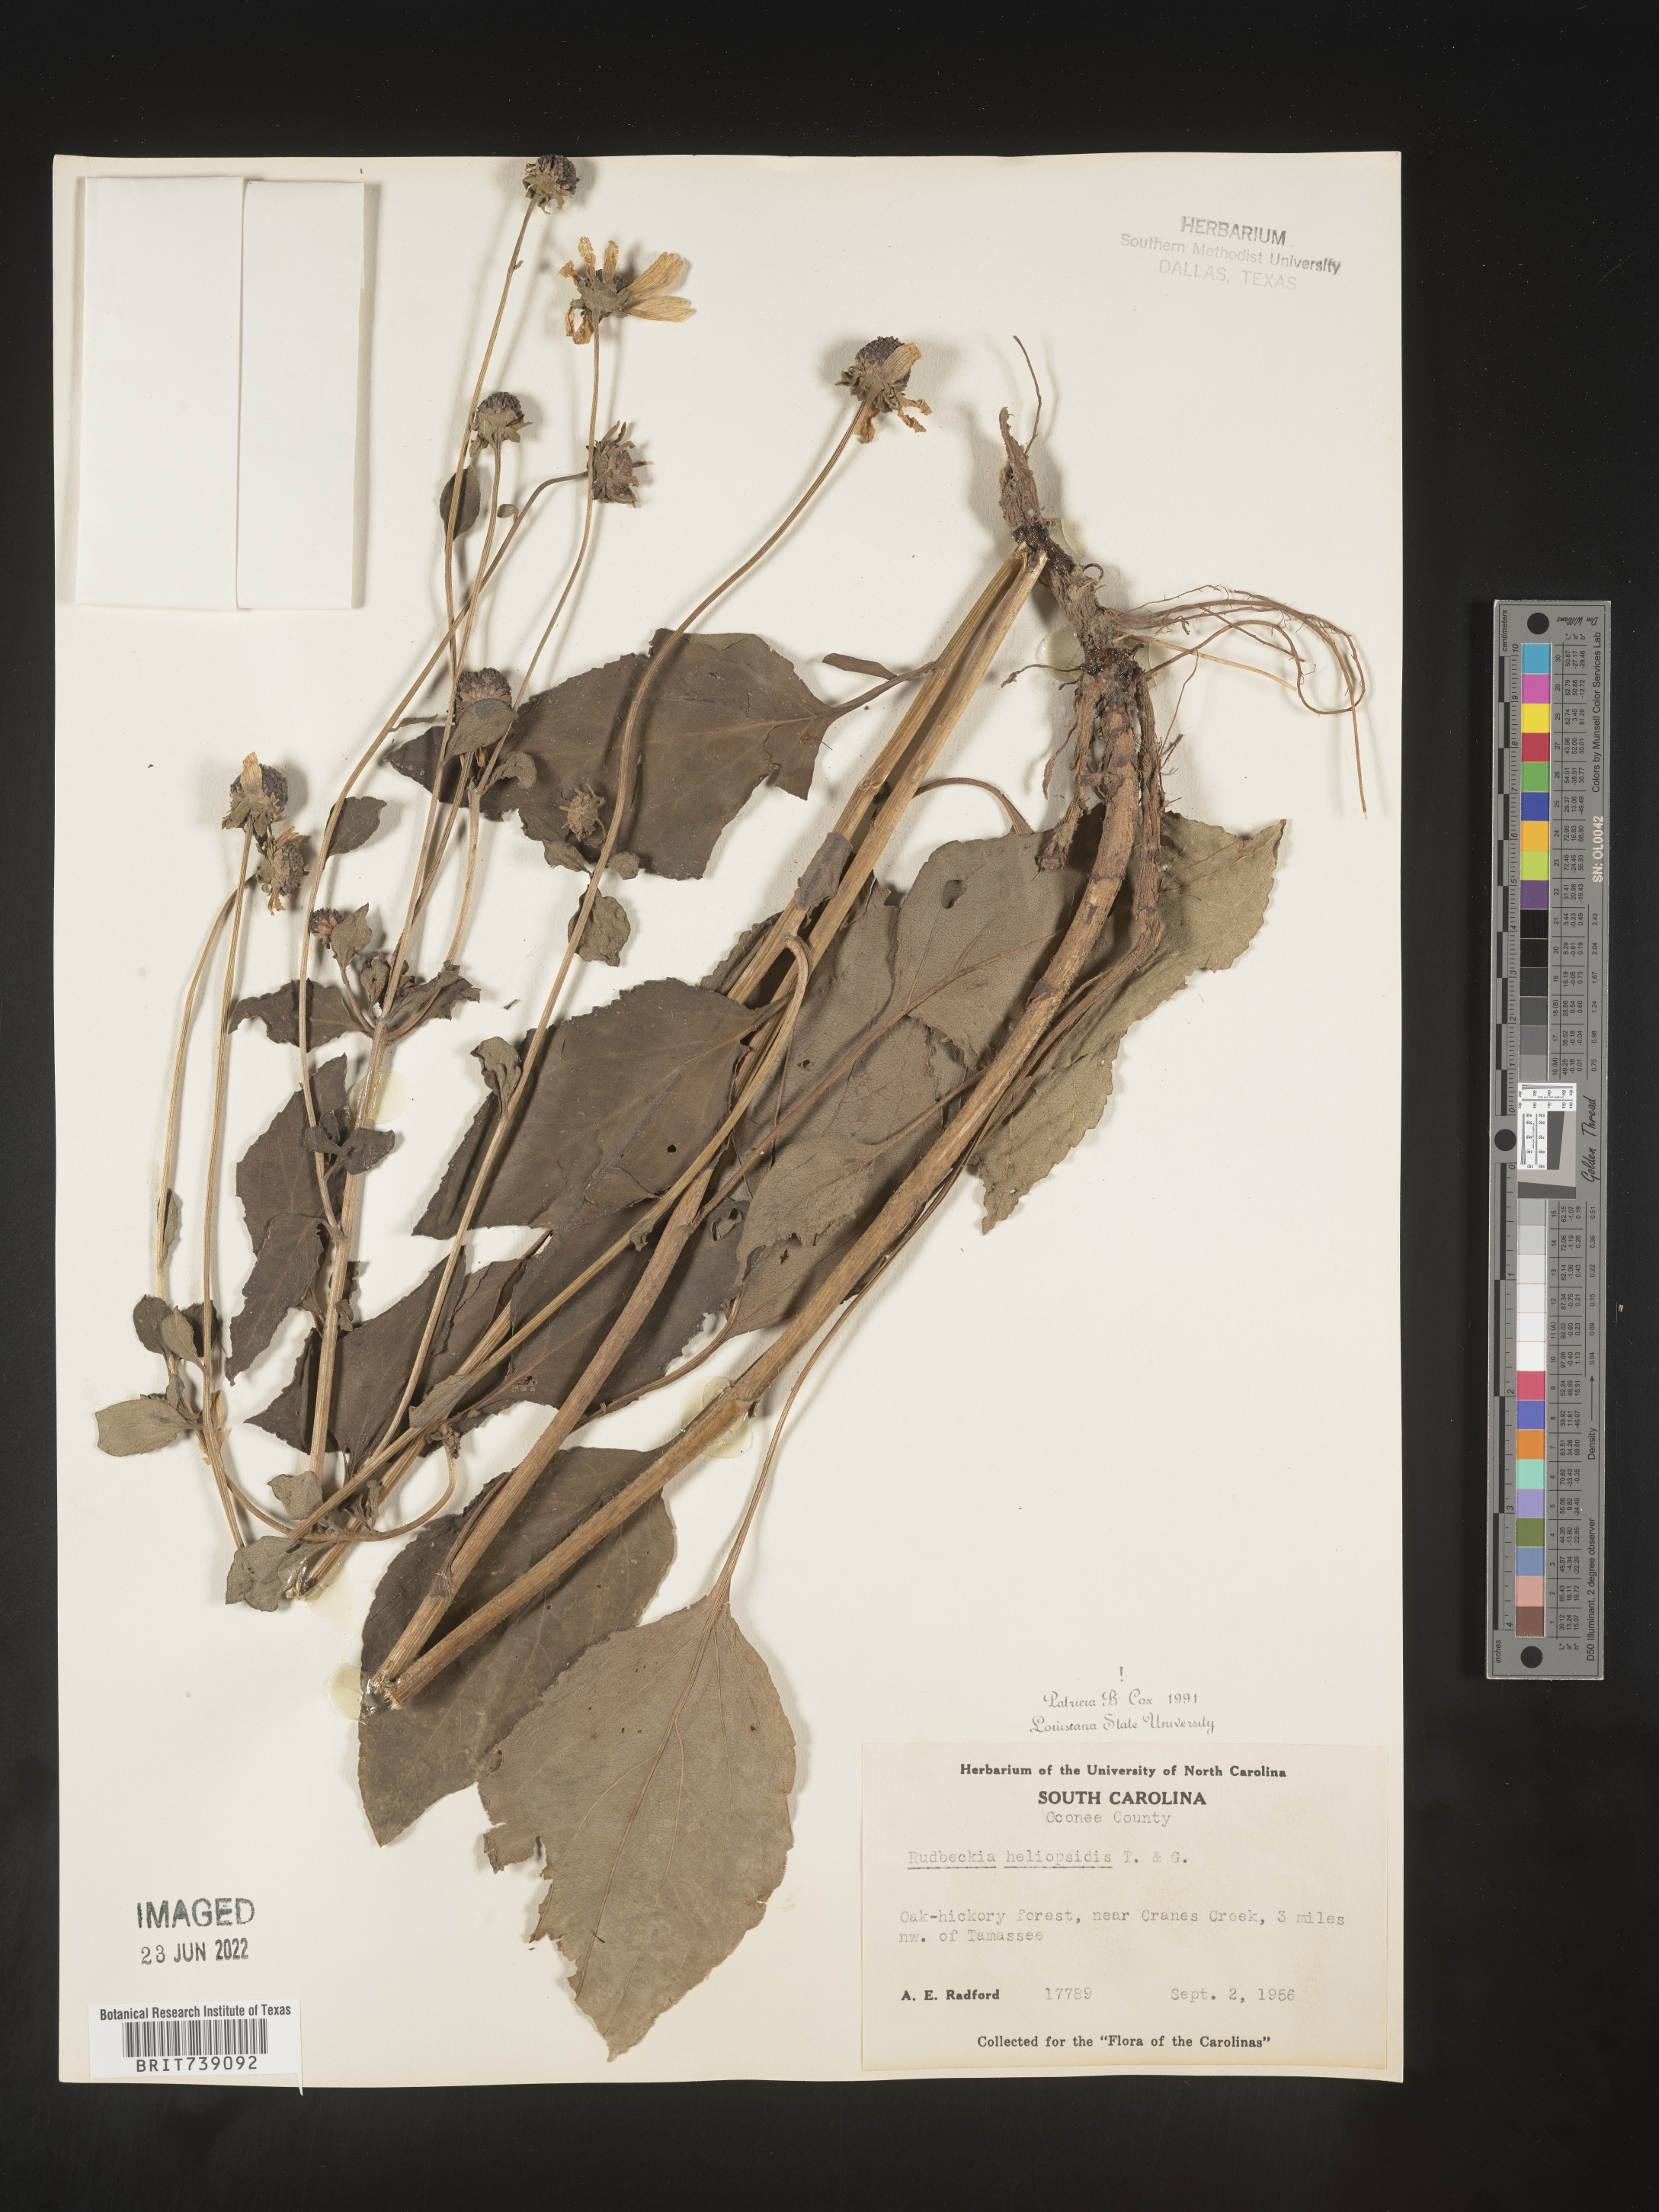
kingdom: Plantae
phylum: Tracheophyta
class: Magnoliopsida
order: Asterales
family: Asteraceae
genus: Rudbeckia
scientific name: Rudbeckia heliopsidis
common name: Little river black-eyed-susan
